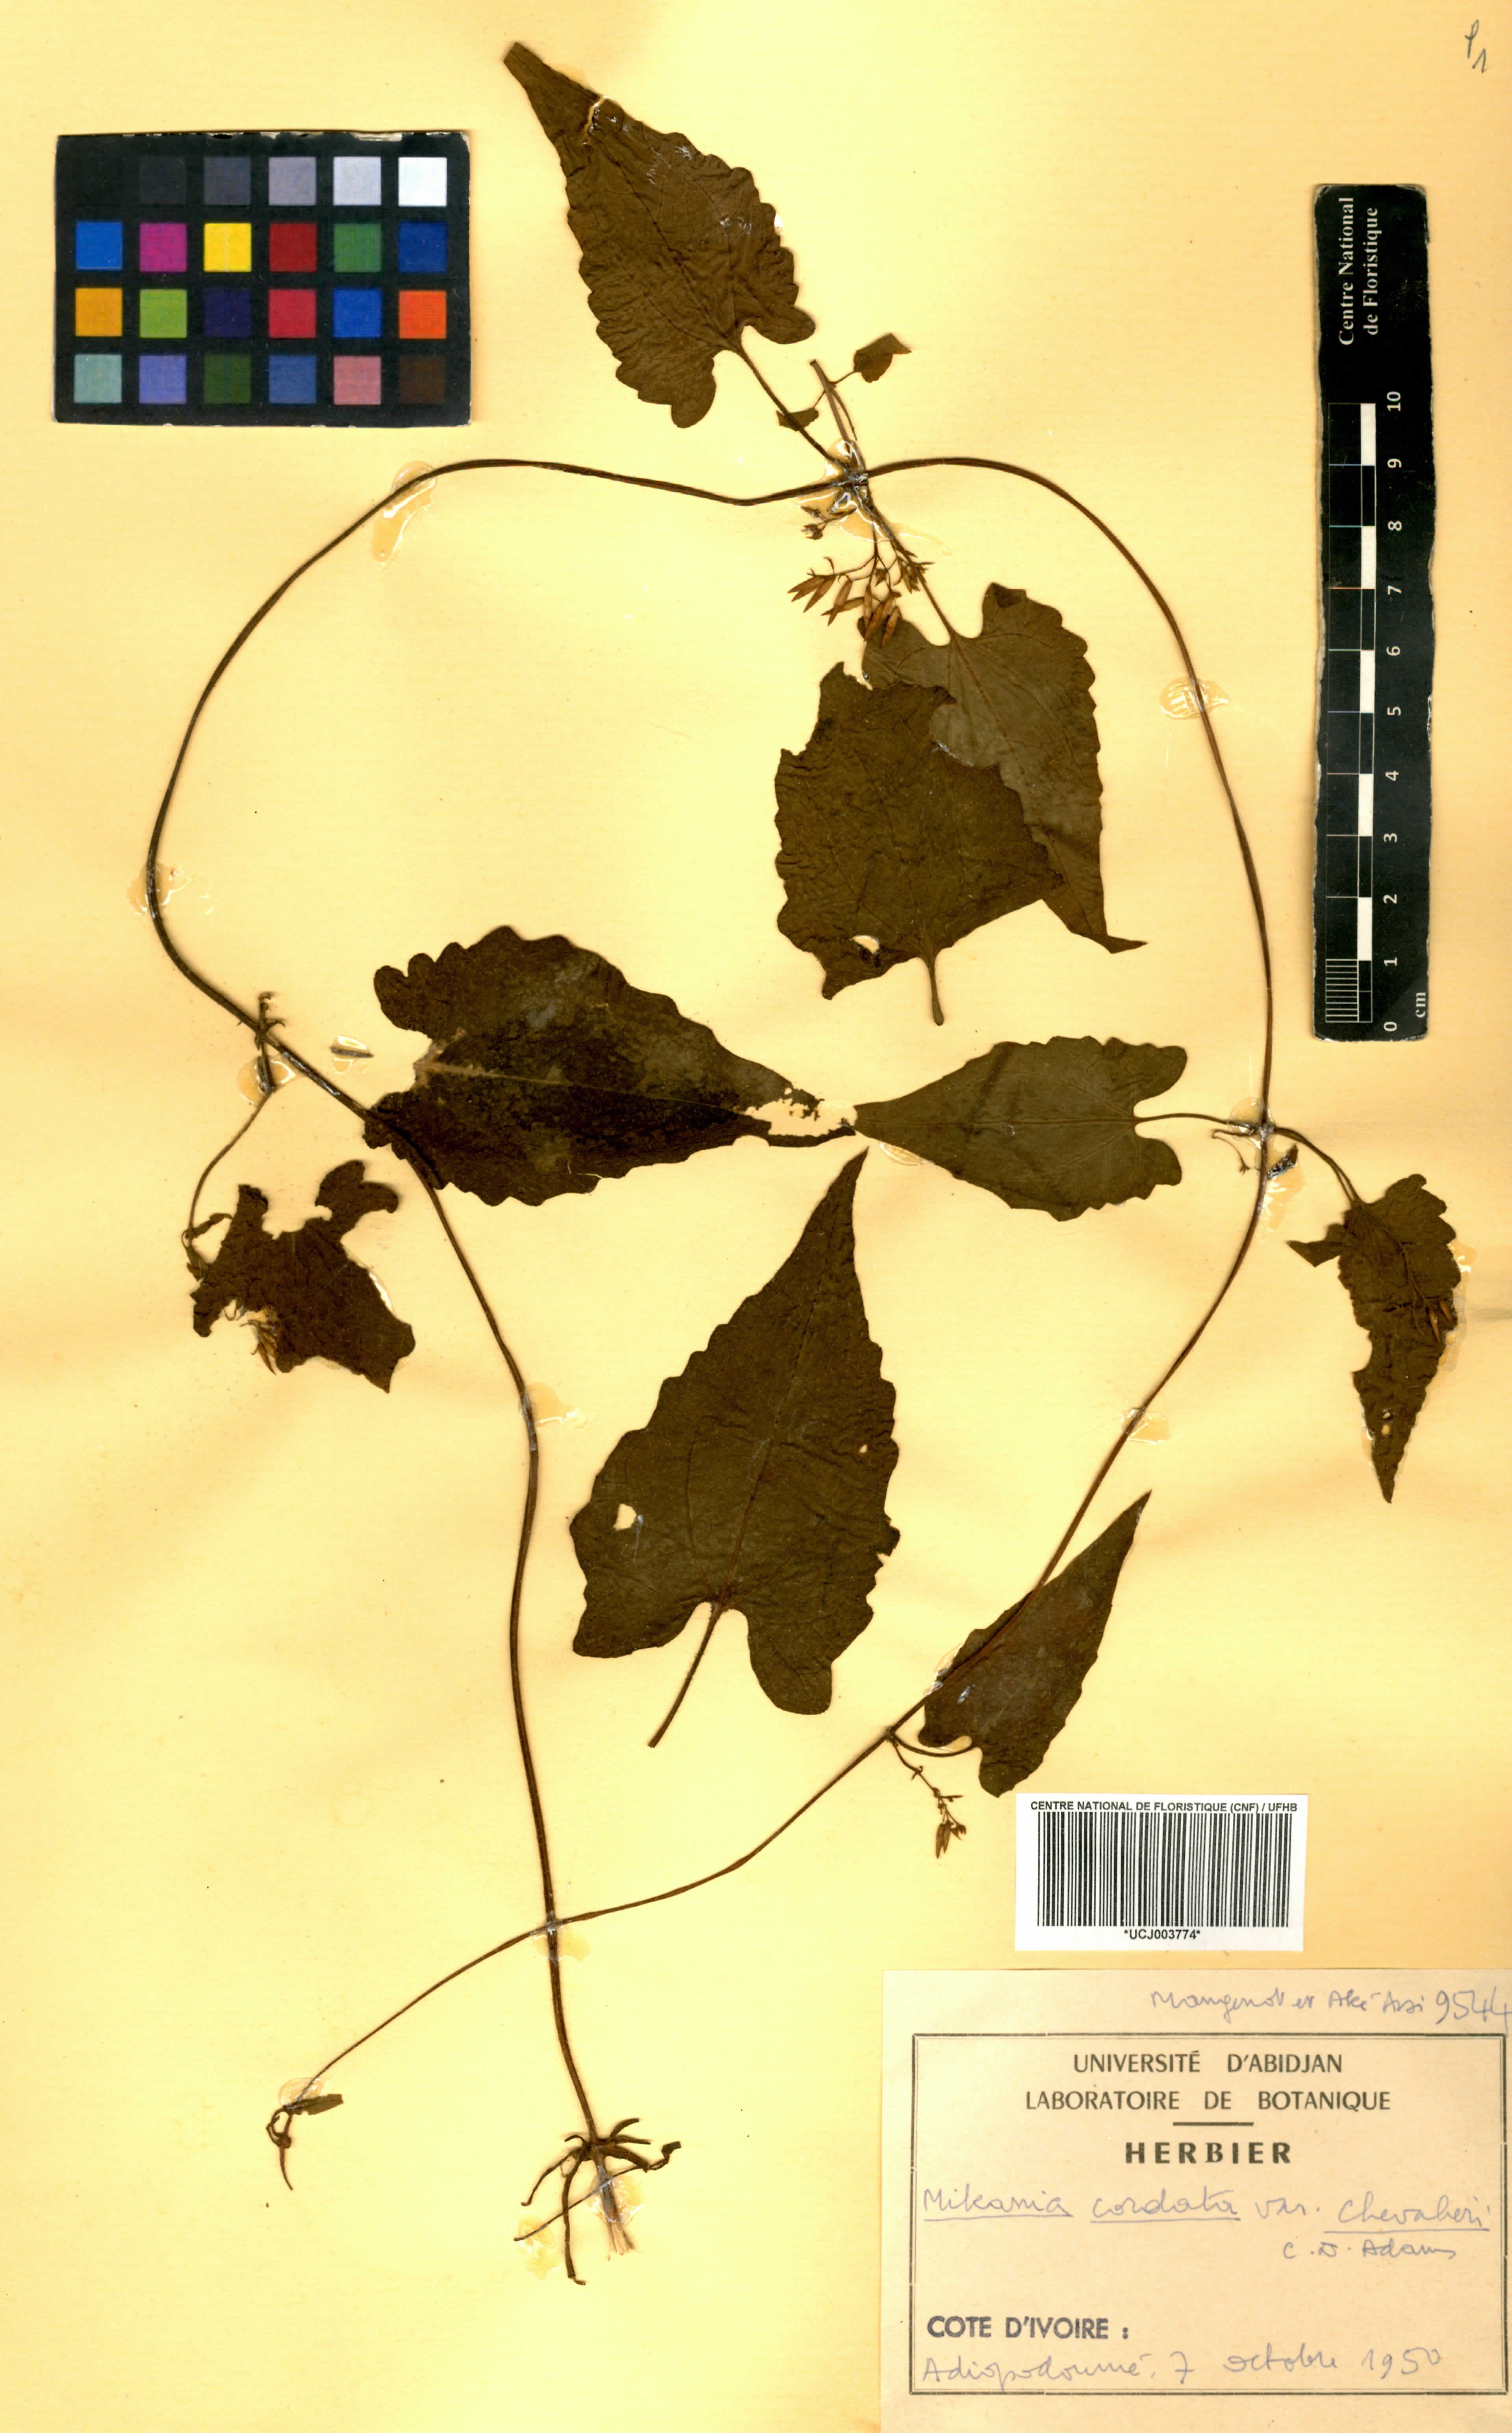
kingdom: Plantae
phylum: Tracheophyta
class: Magnoliopsida
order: Asterales
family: Asteraceae
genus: Mikania
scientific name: Mikania chevalieri
